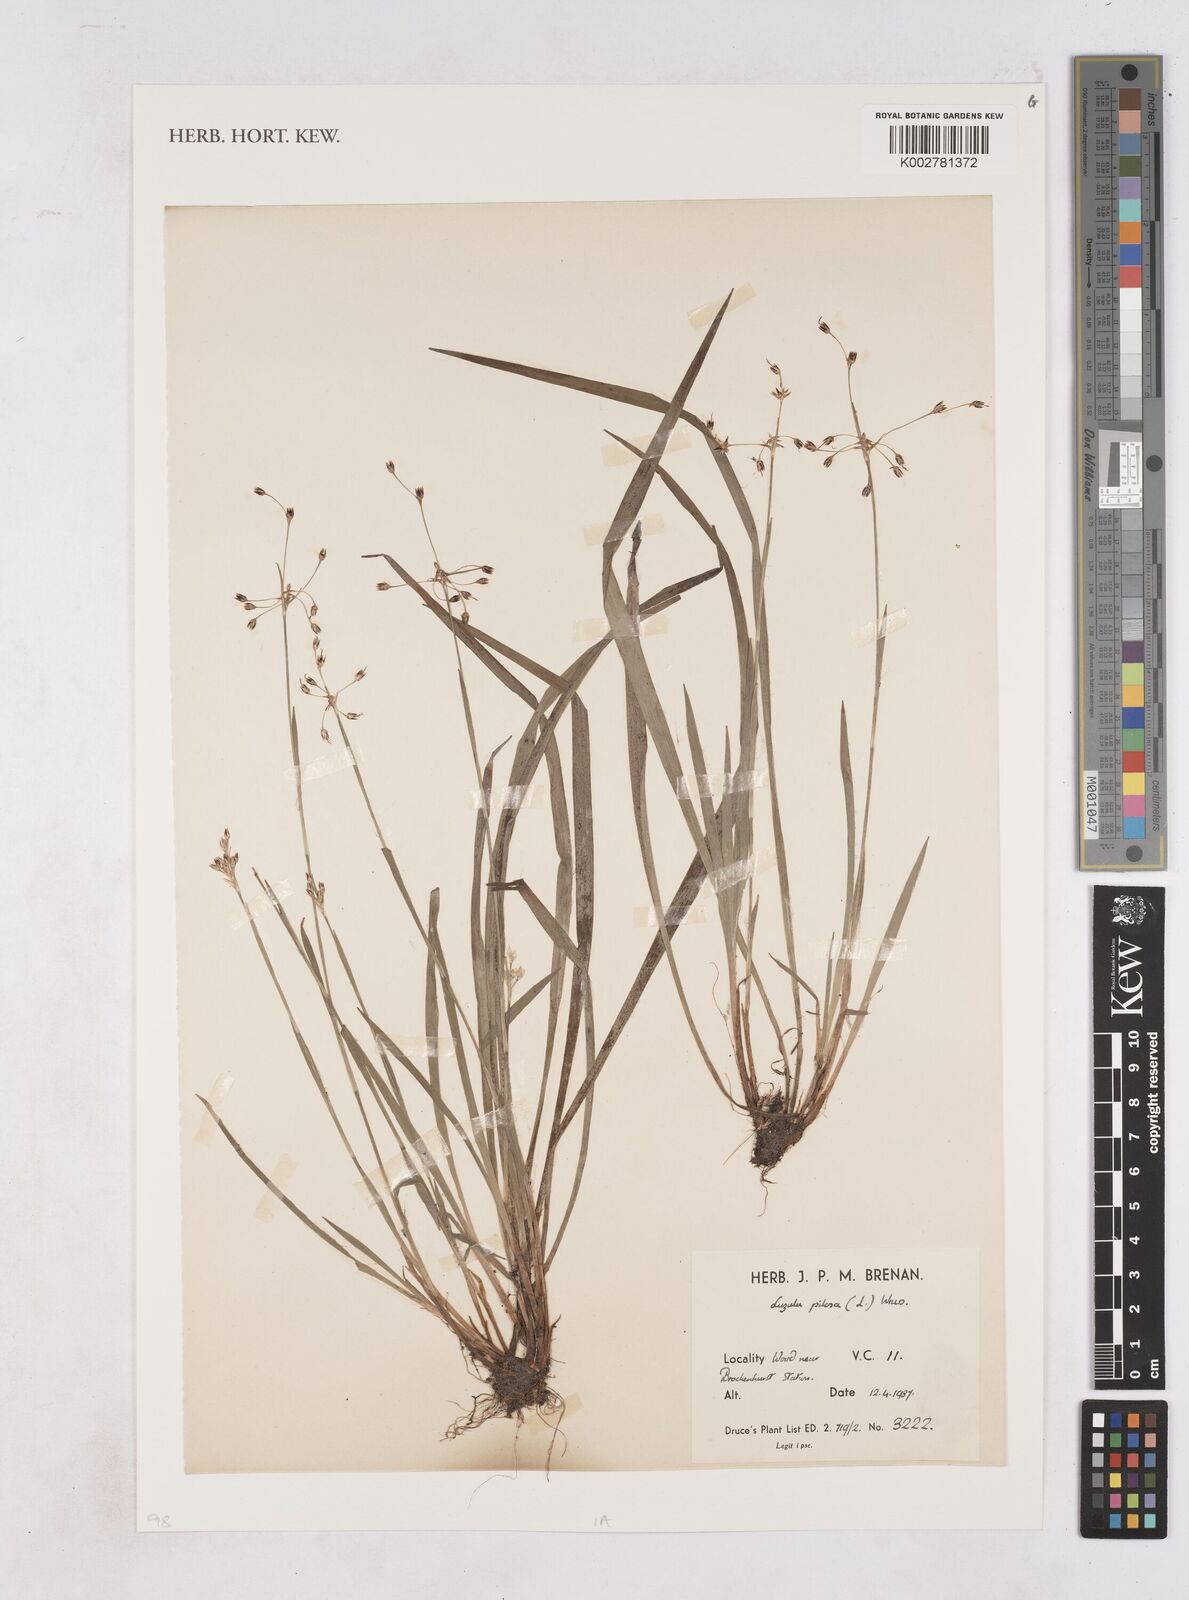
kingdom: Plantae
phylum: Tracheophyta
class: Liliopsida
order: Poales
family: Juncaceae
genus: Luzula
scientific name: Luzula pilosa
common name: Hairy wood-rush
